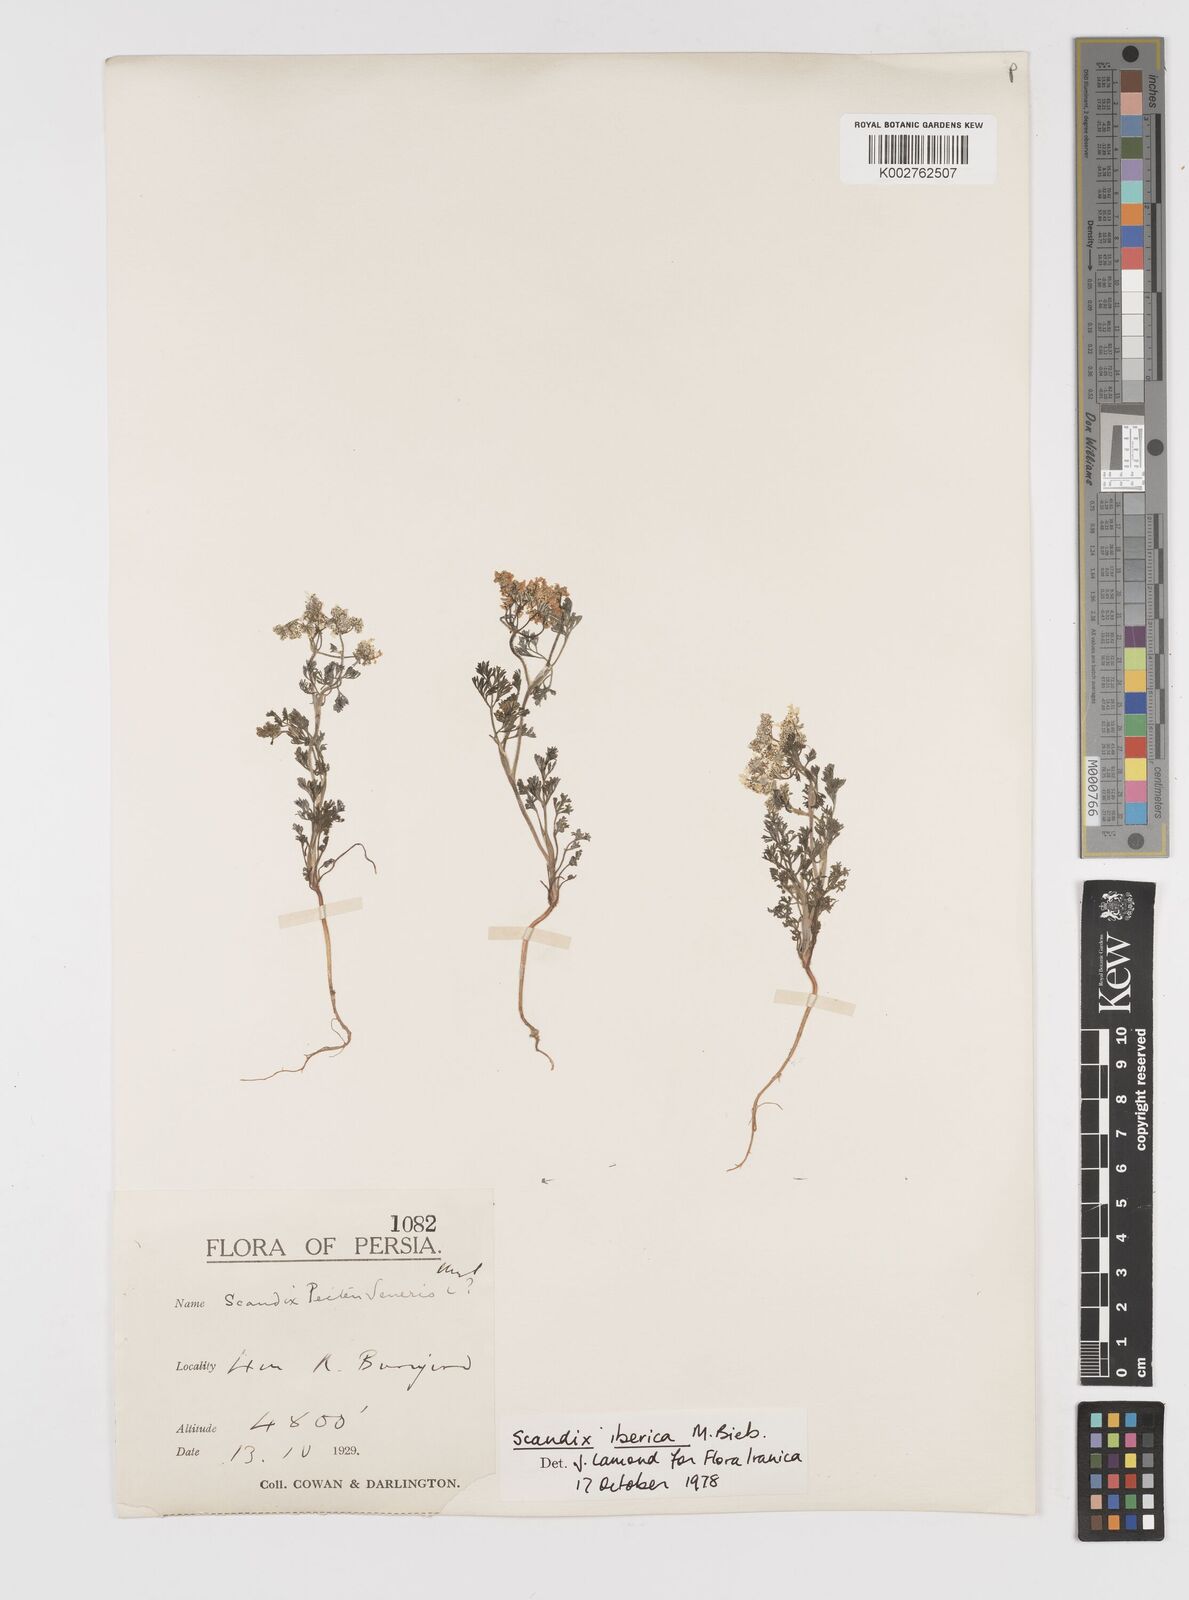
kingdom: Plantae
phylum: Tracheophyta
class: Magnoliopsida
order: Apiales
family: Apiaceae
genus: Scandix
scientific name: Scandix iberica
